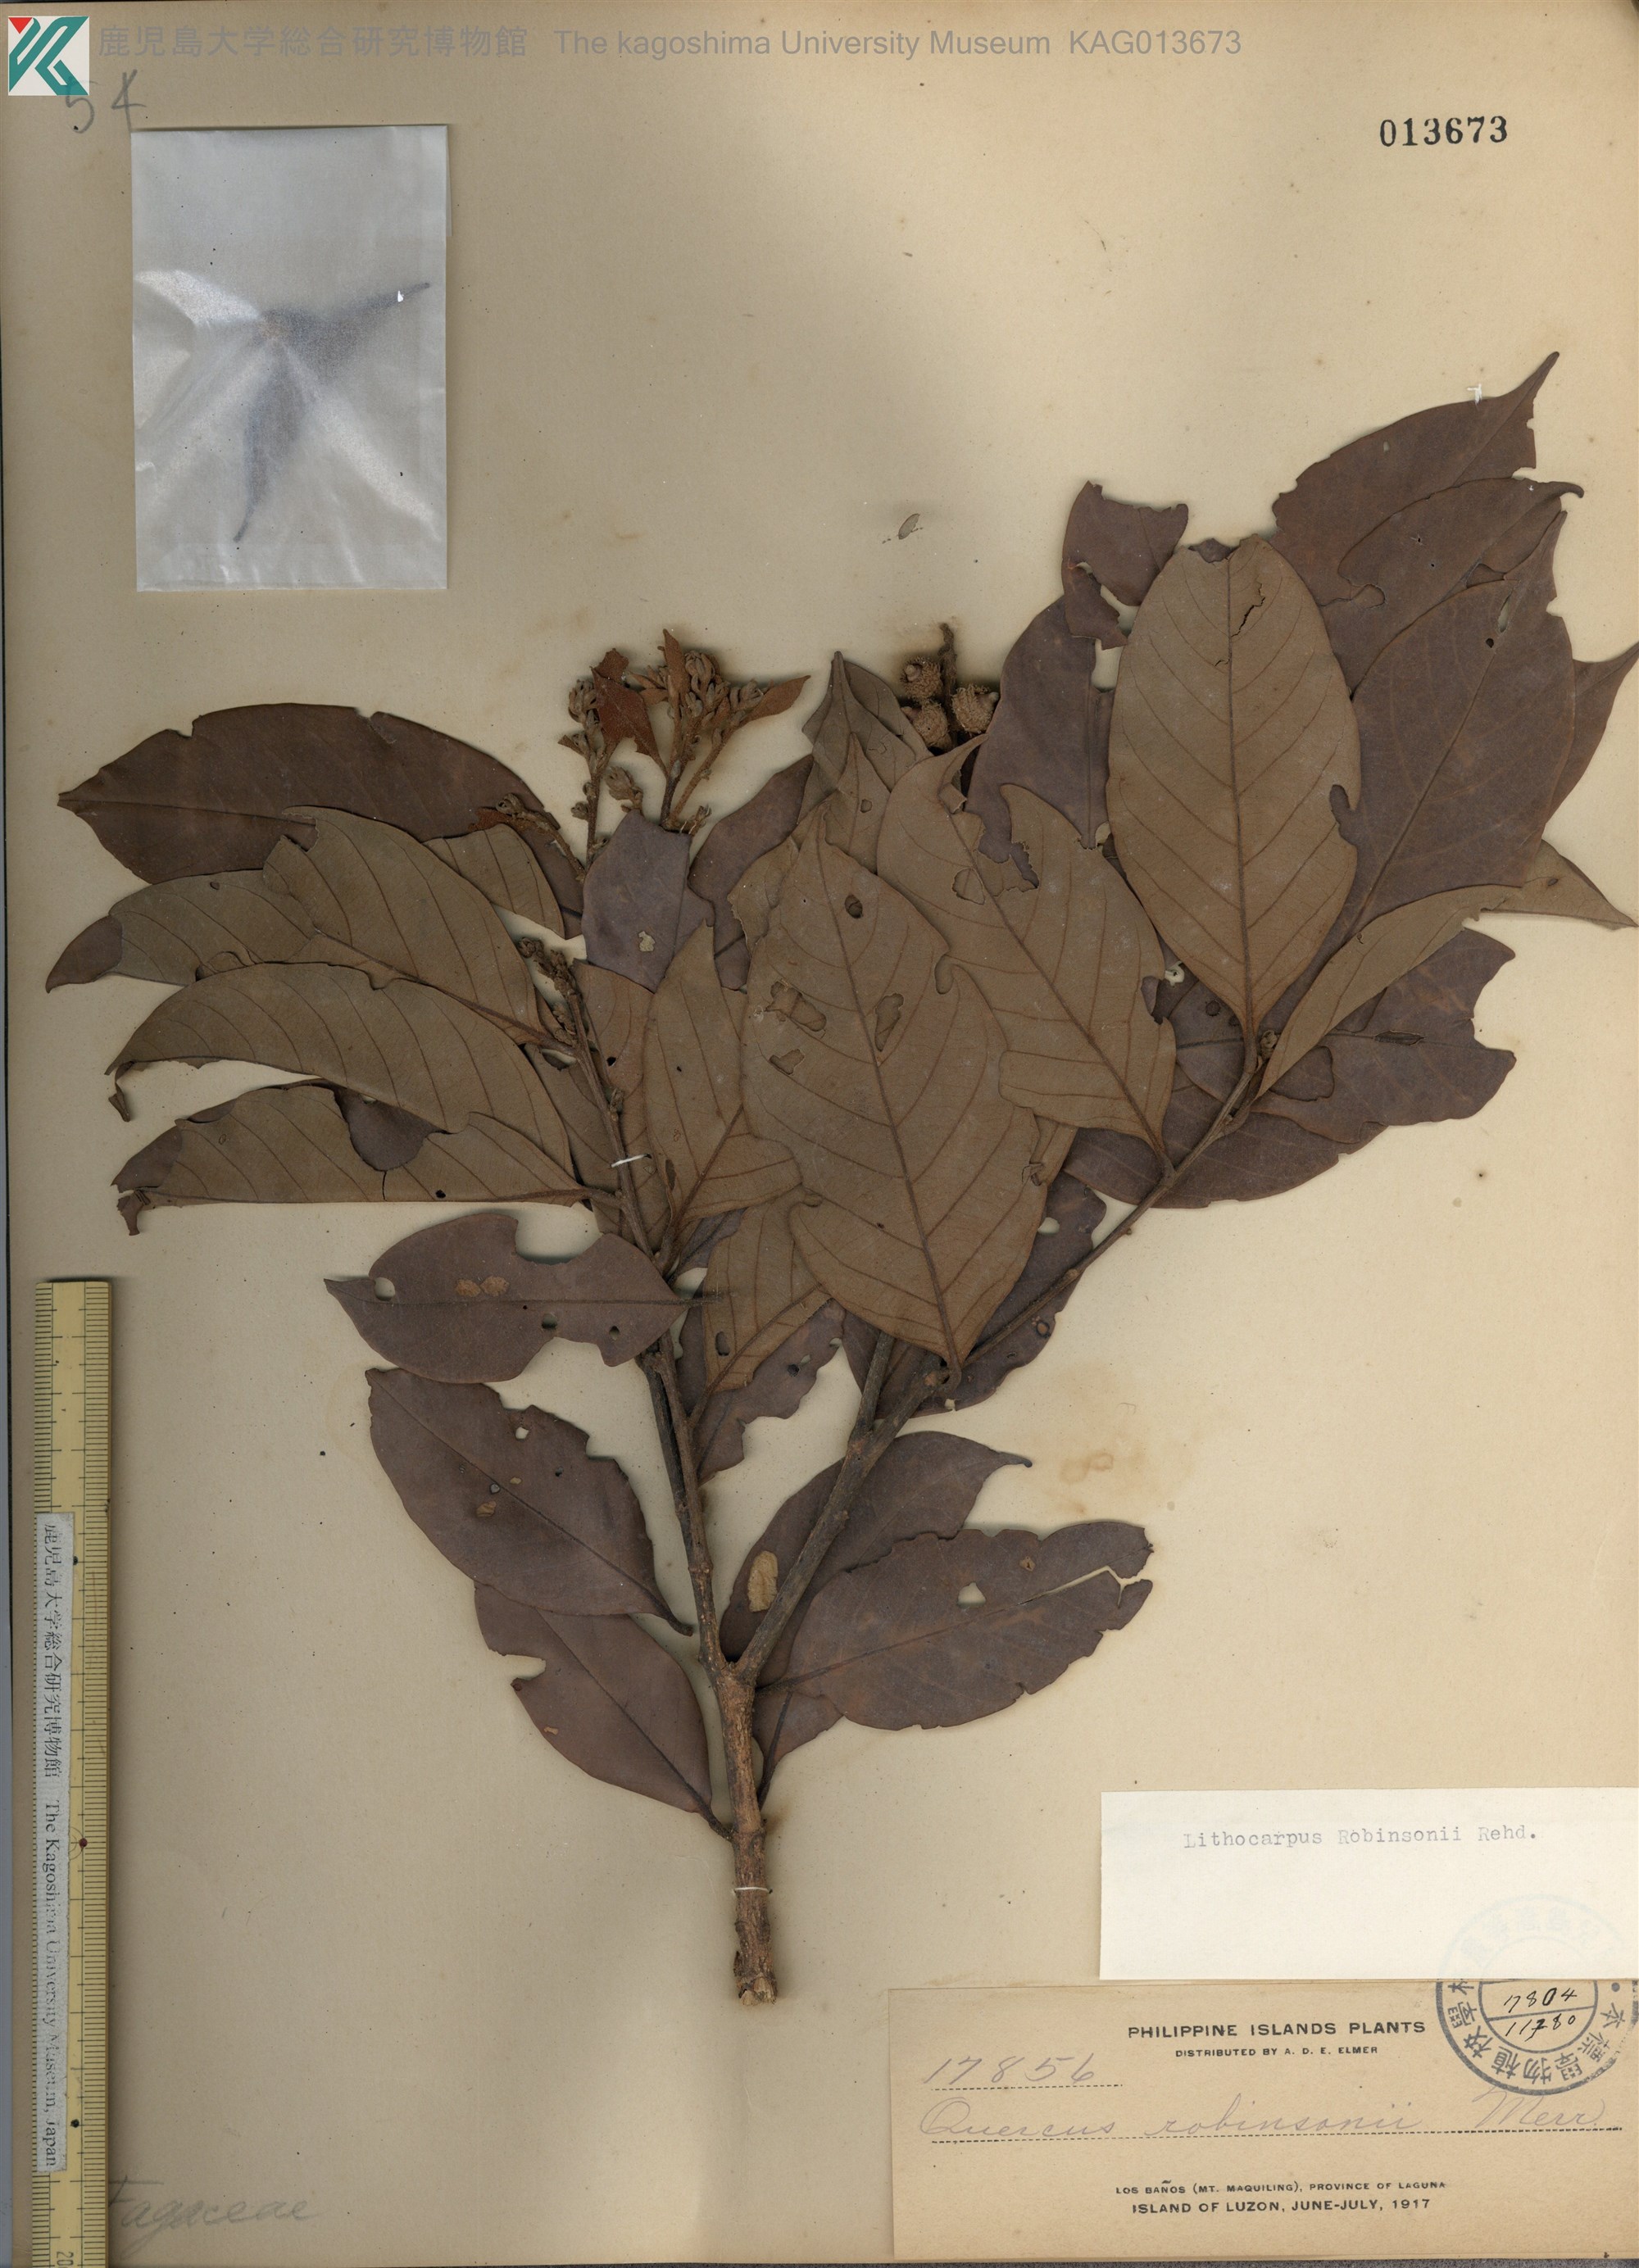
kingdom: Plantae
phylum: Tracheophyta
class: Magnoliopsida
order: Fagales
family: Fagaceae
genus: Lithocarpus
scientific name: Lithocarpus robinsonii
